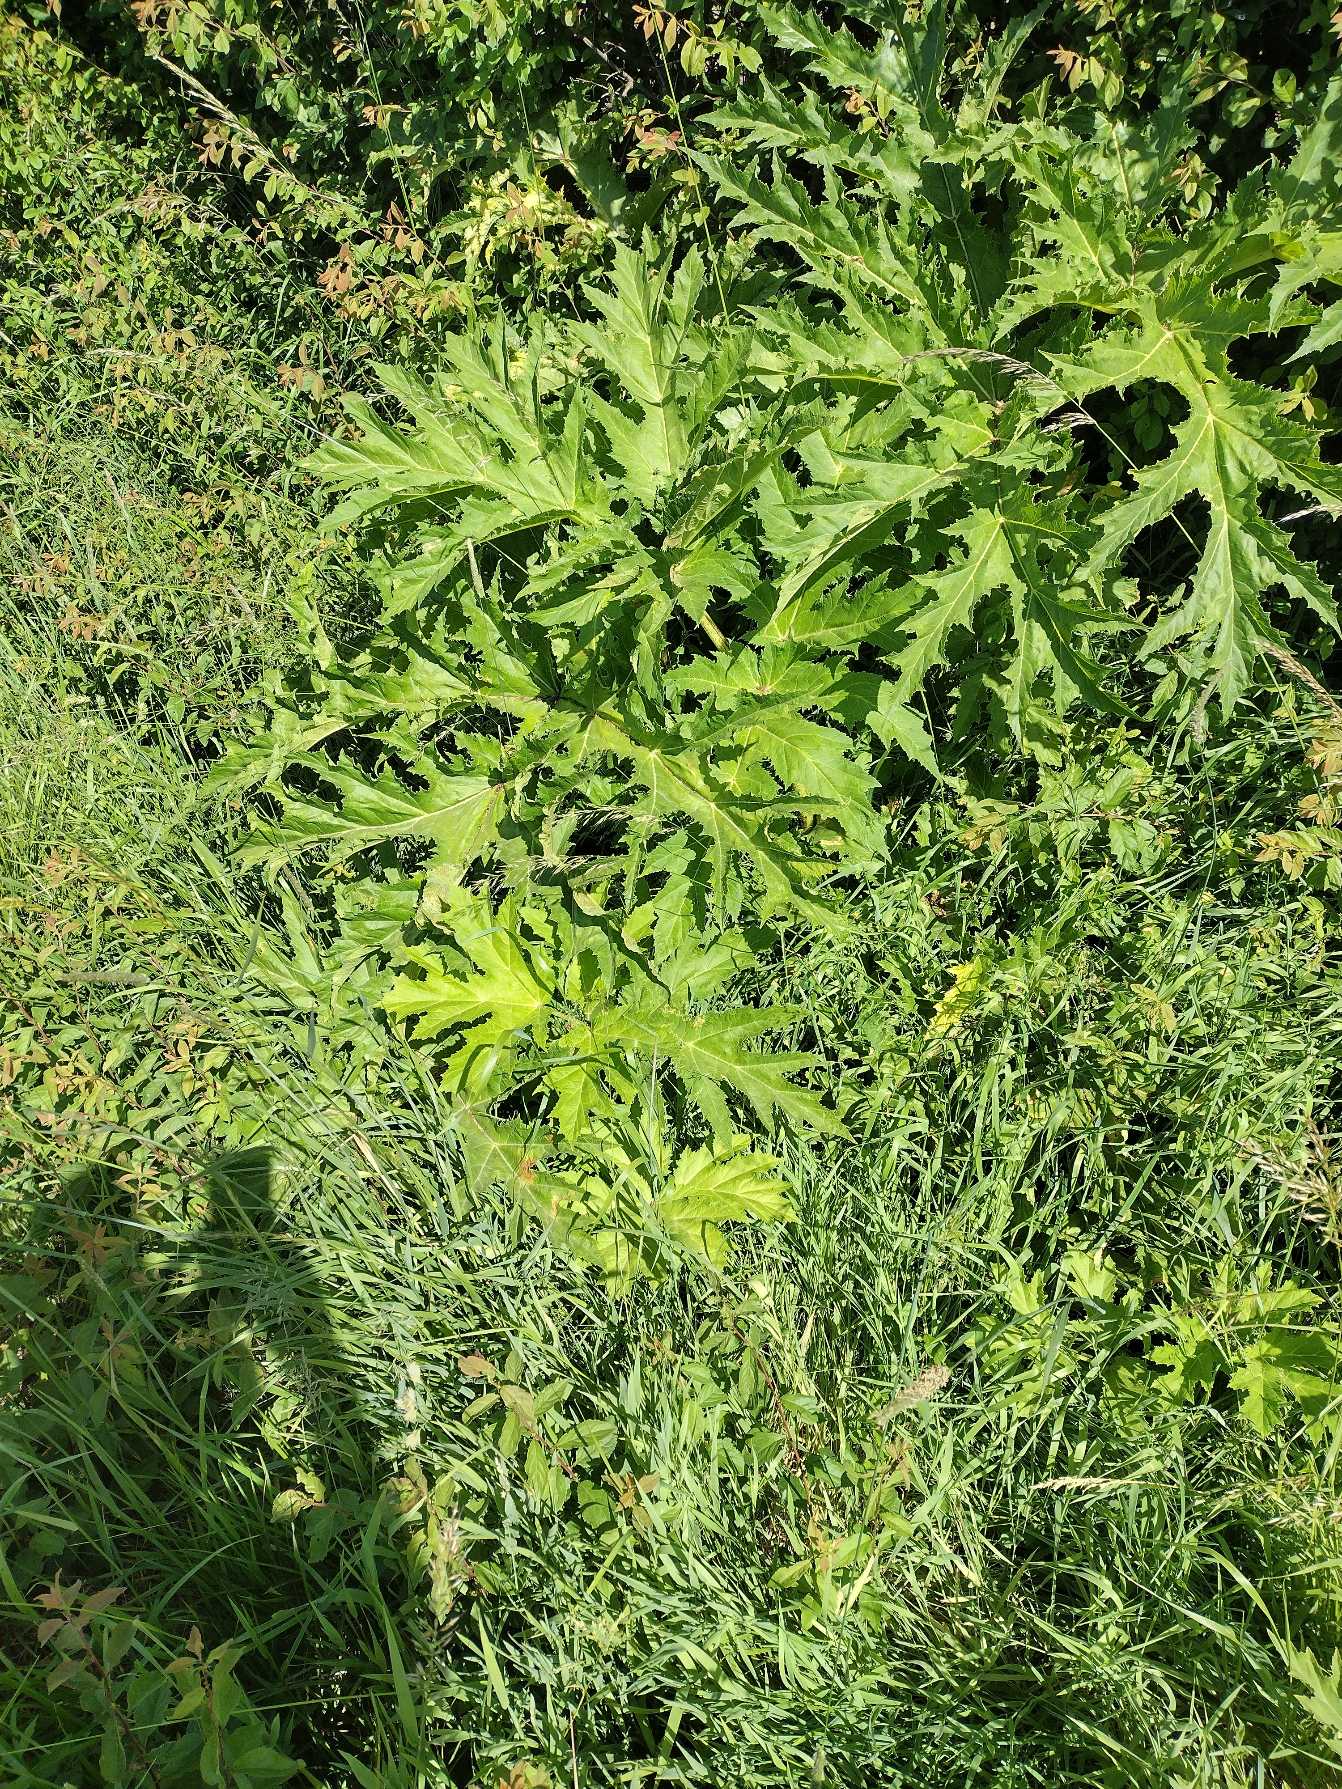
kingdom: Plantae
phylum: Tracheophyta
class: Magnoliopsida
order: Apiales
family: Apiaceae
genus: Heracleum
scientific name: Heracleum mantegazzianum
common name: Kæmpe-bjørneklo
